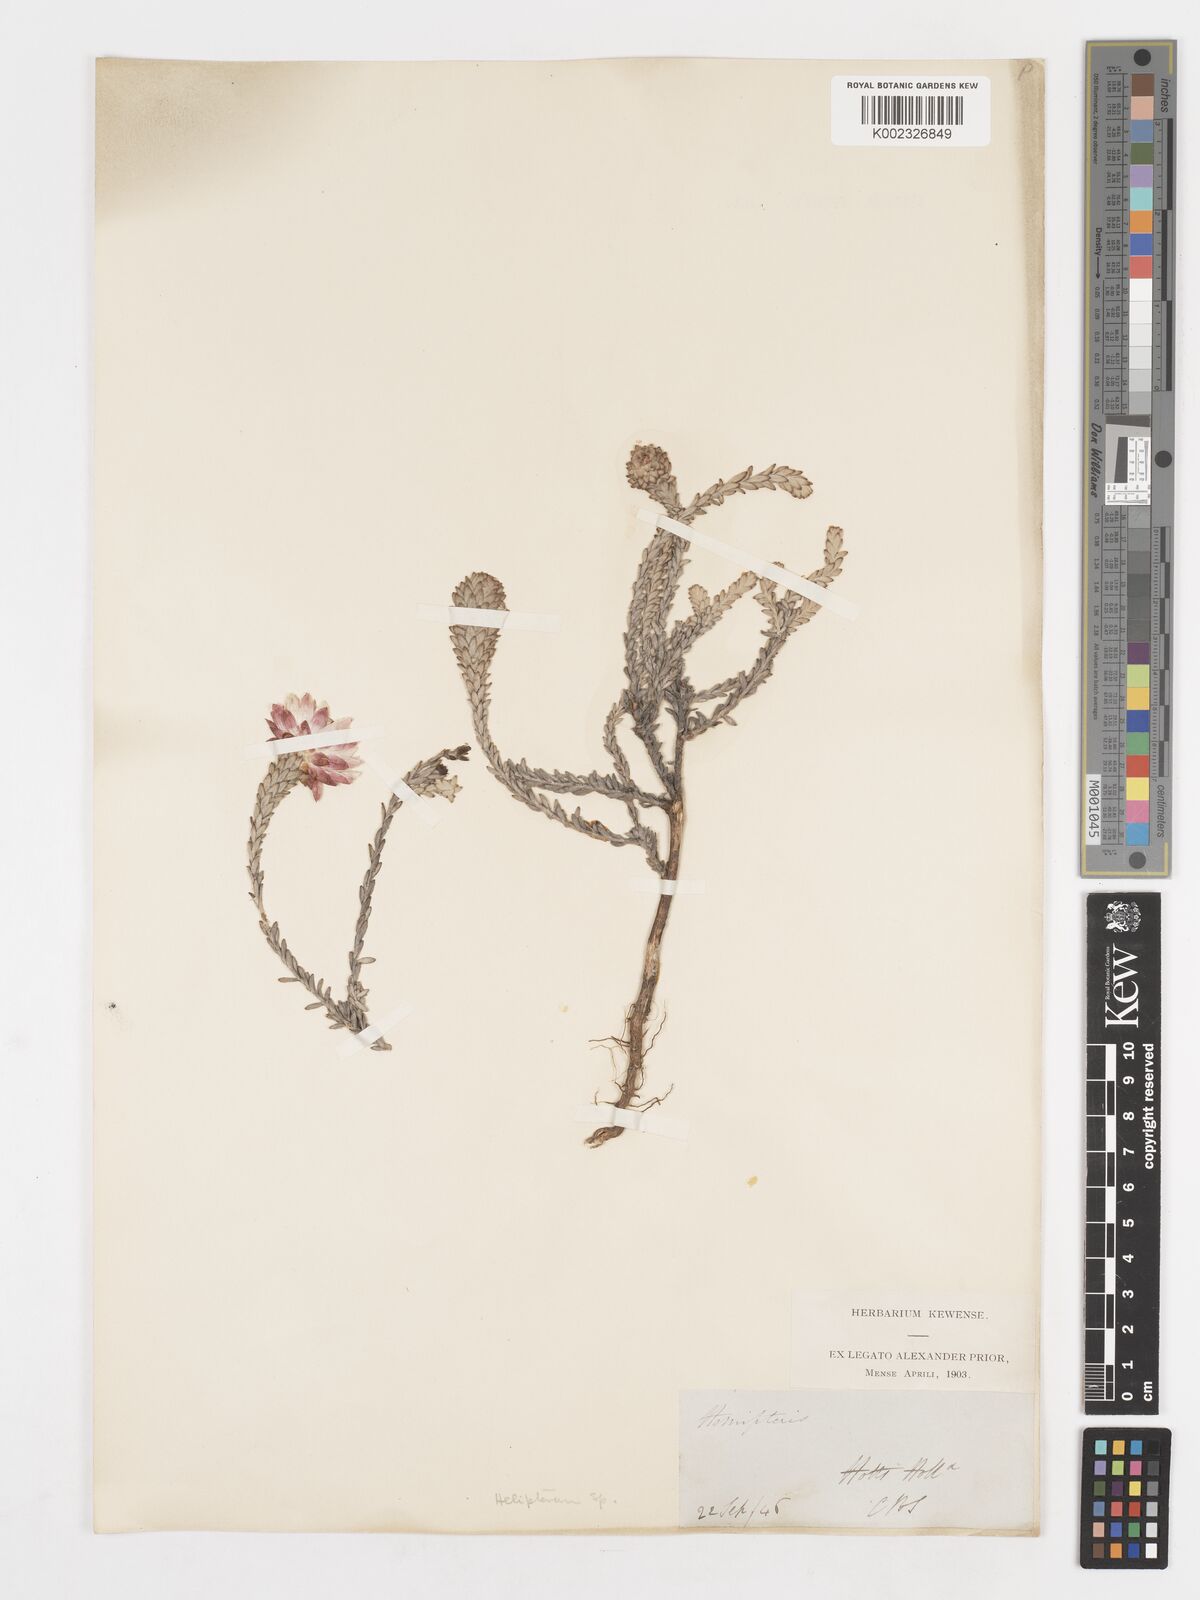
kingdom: Plantae
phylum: Tracheophyta
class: Magnoliopsida
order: Asterales
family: Asteraceae
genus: Syncarpha
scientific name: Syncarpha
